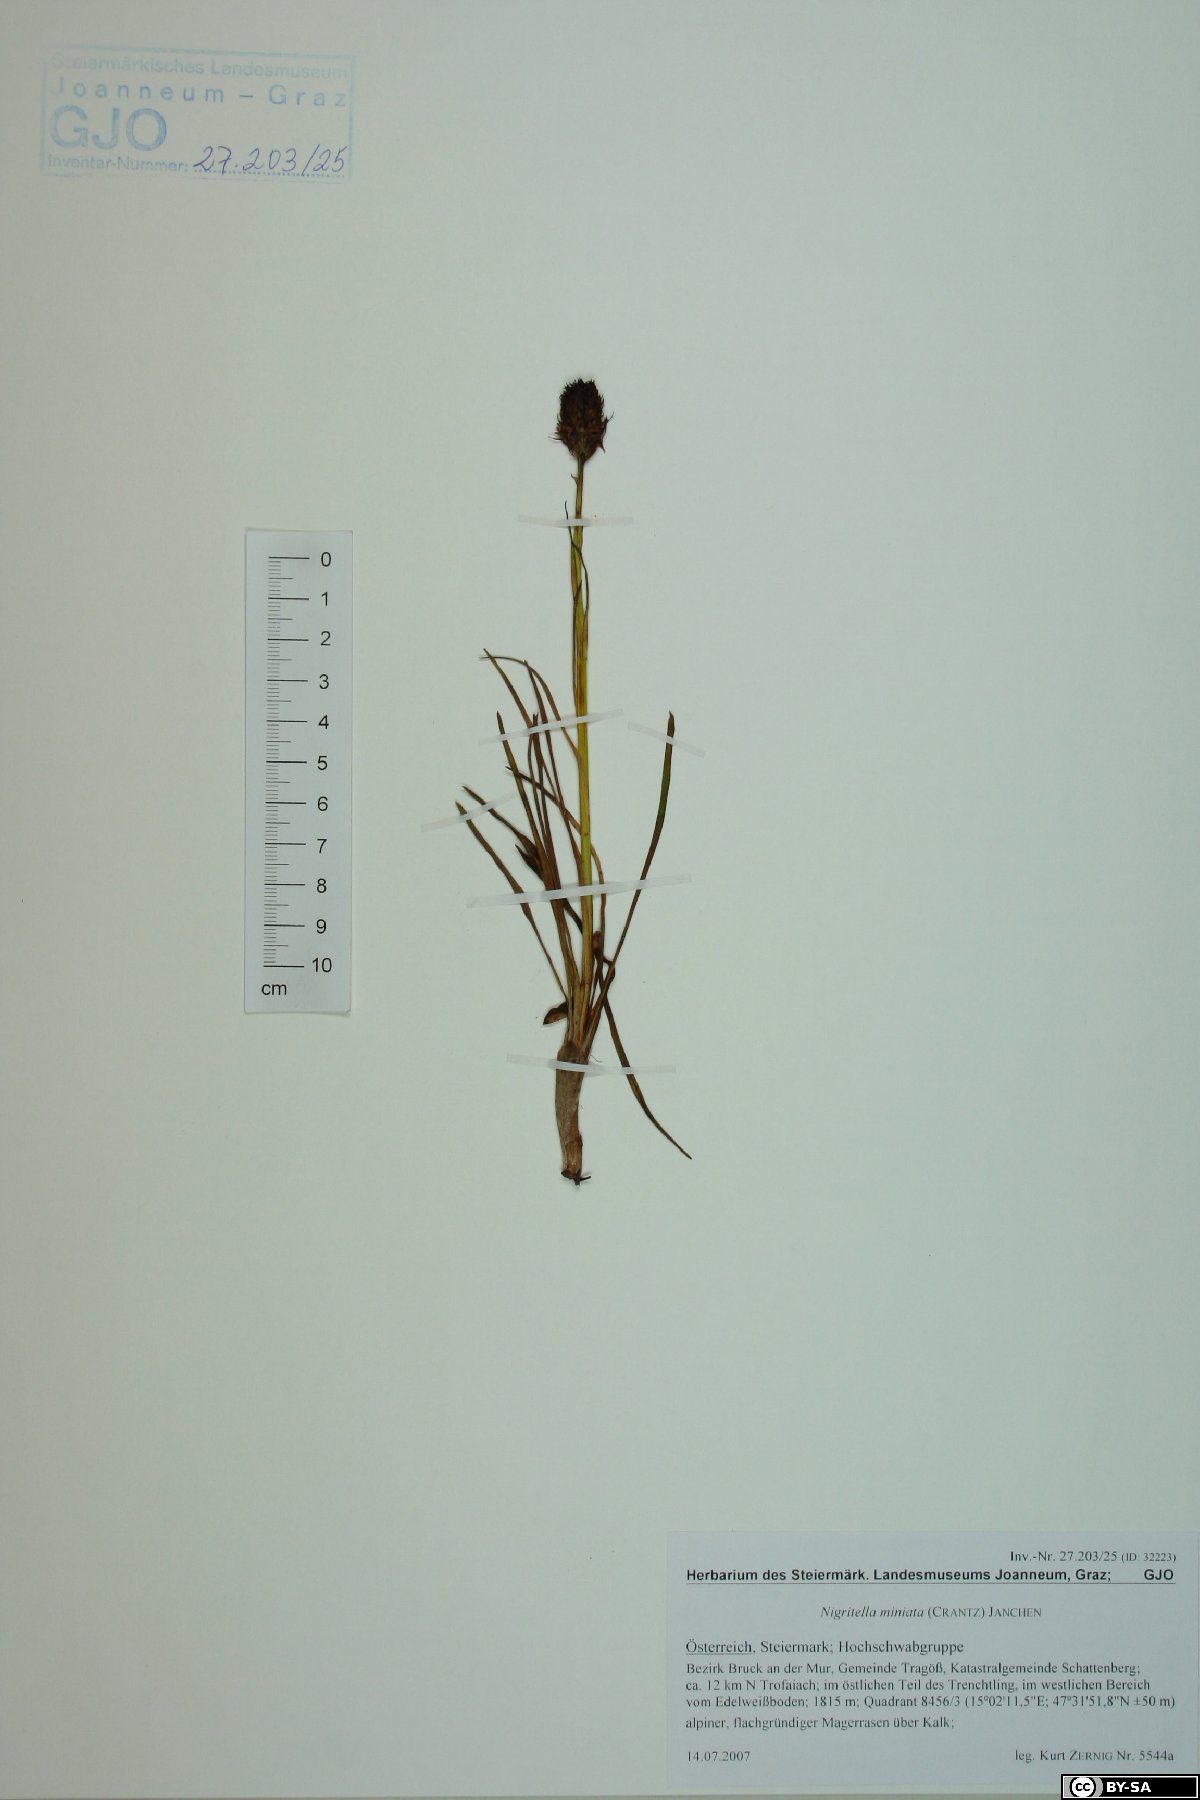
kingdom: Plantae
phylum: Tracheophyta
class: Liliopsida
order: Asparagales
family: Orchidaceae
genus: Gymnadenia
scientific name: Gymnadenia miniata
